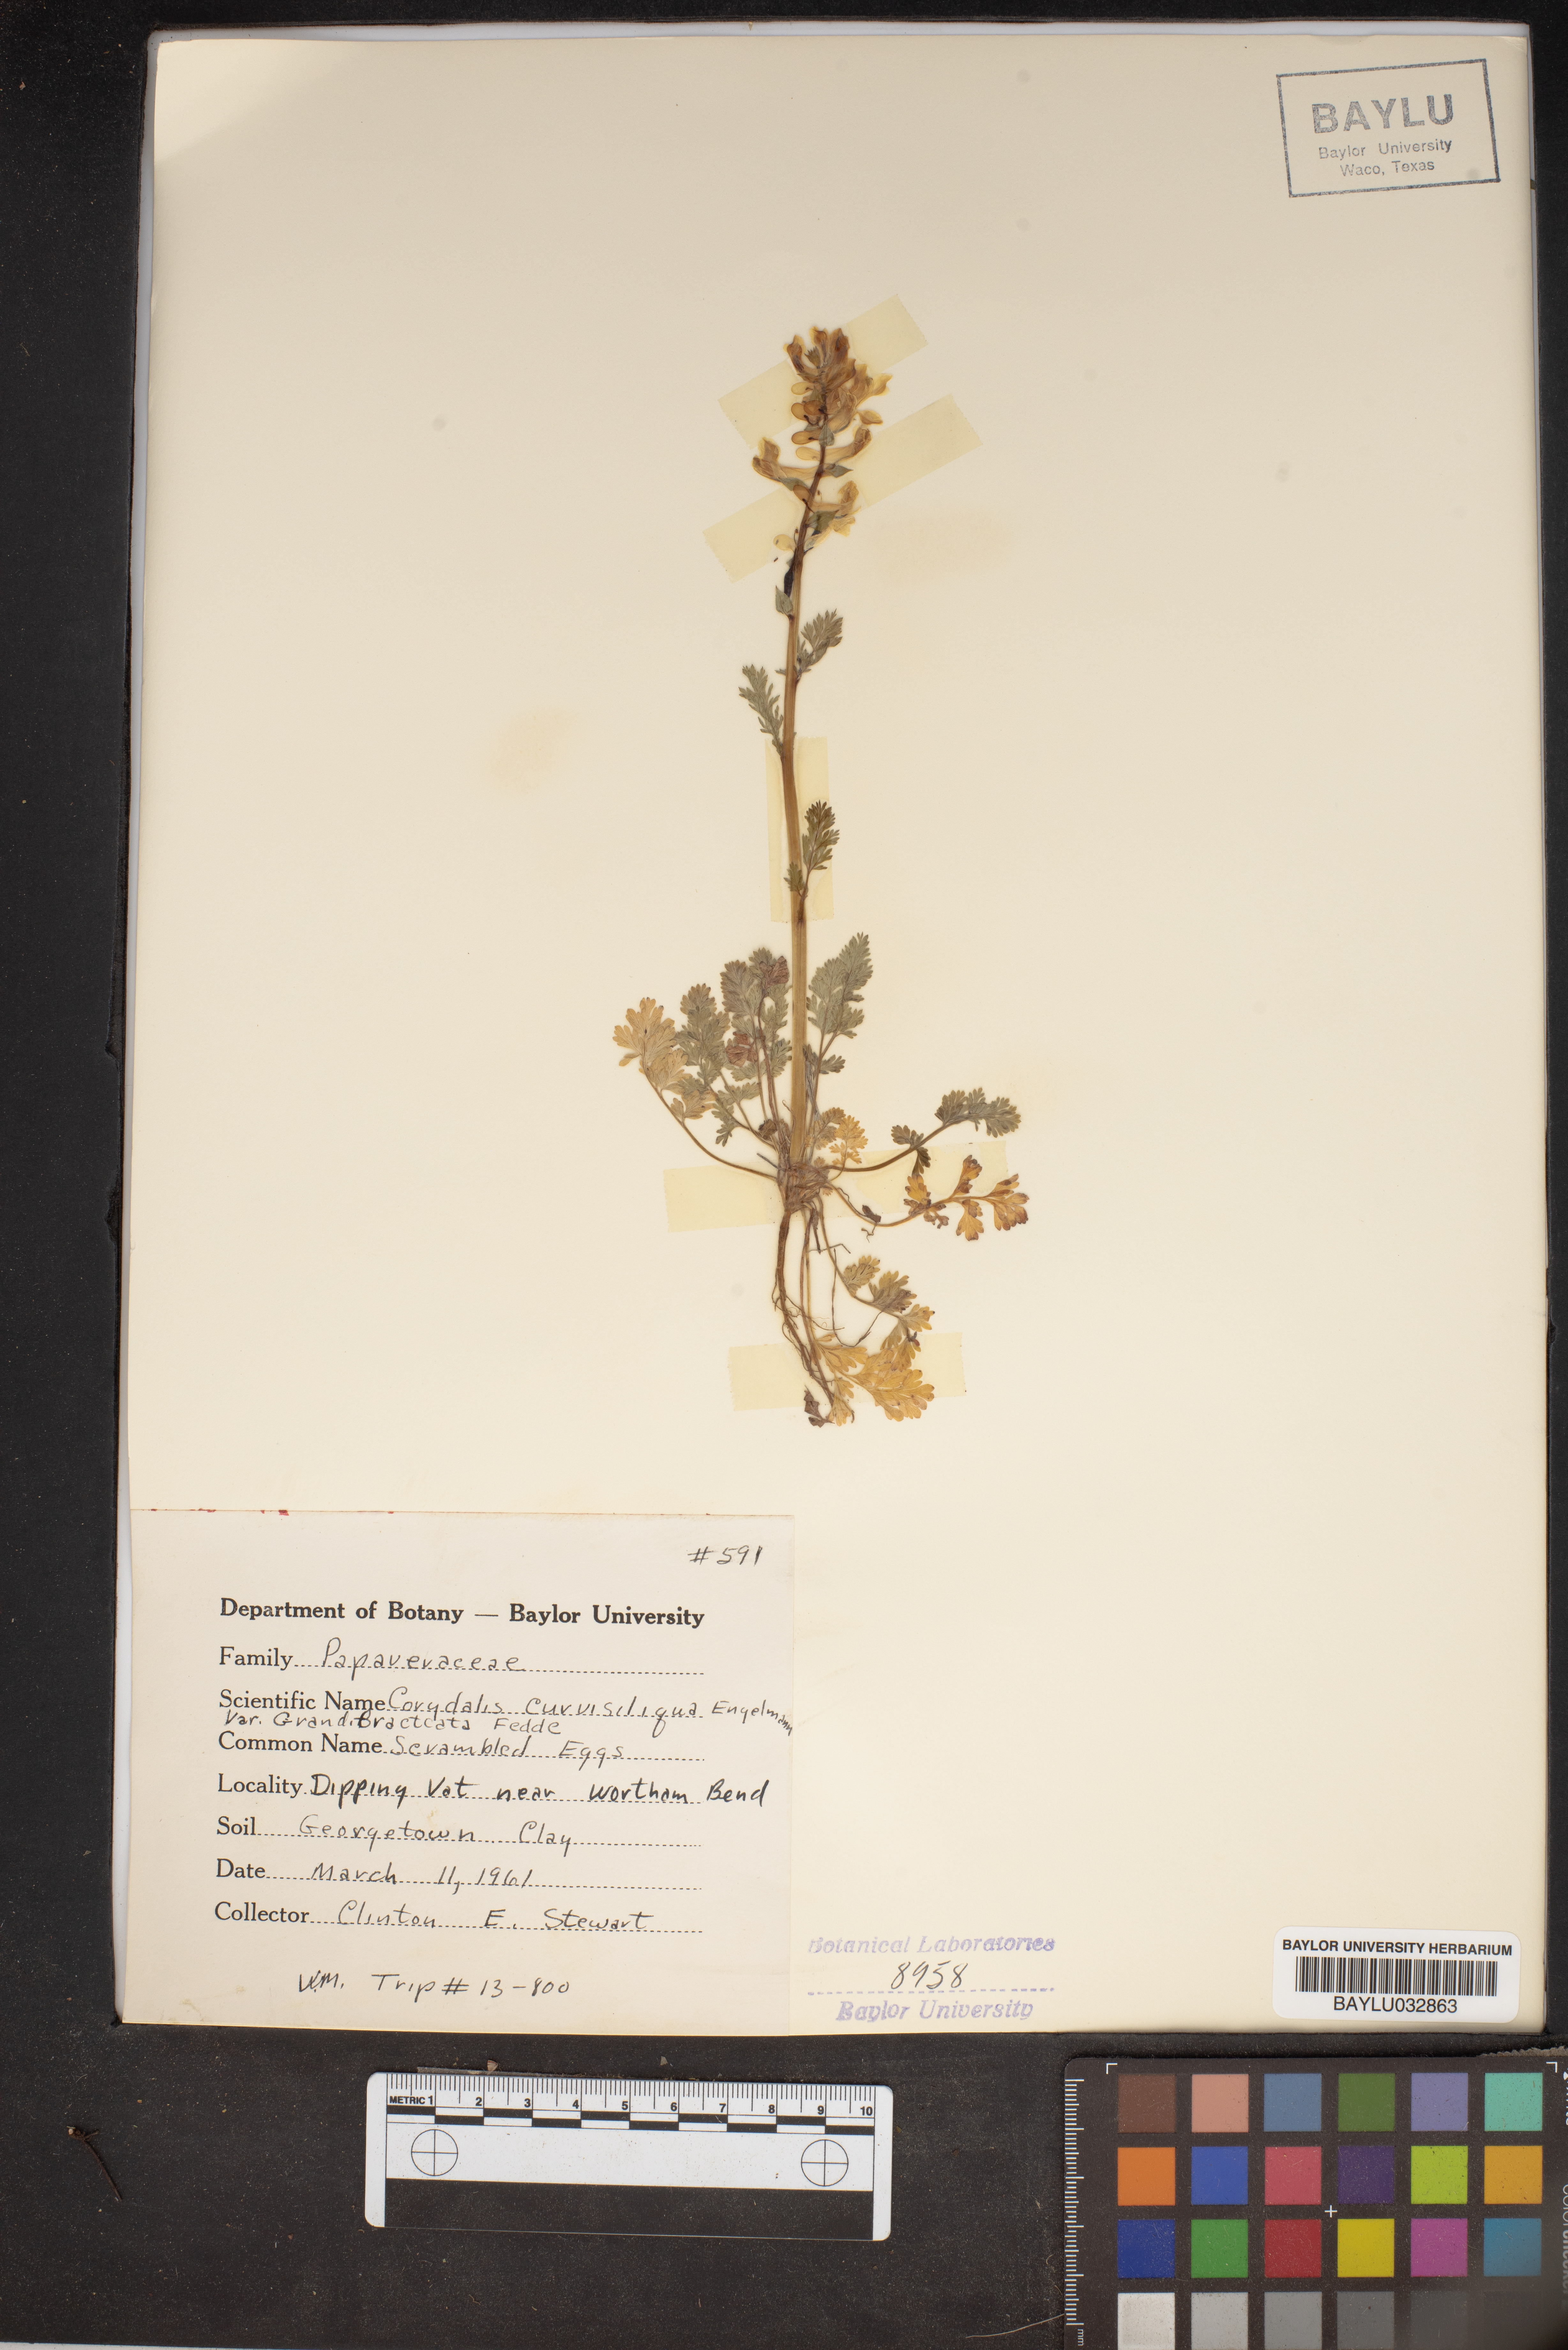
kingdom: Plantae
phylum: Tracheophyta
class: Magnoliopsida
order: Ranunculales
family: Papaveraceae
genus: Corydalis
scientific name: Corydalis curvisiliqua
